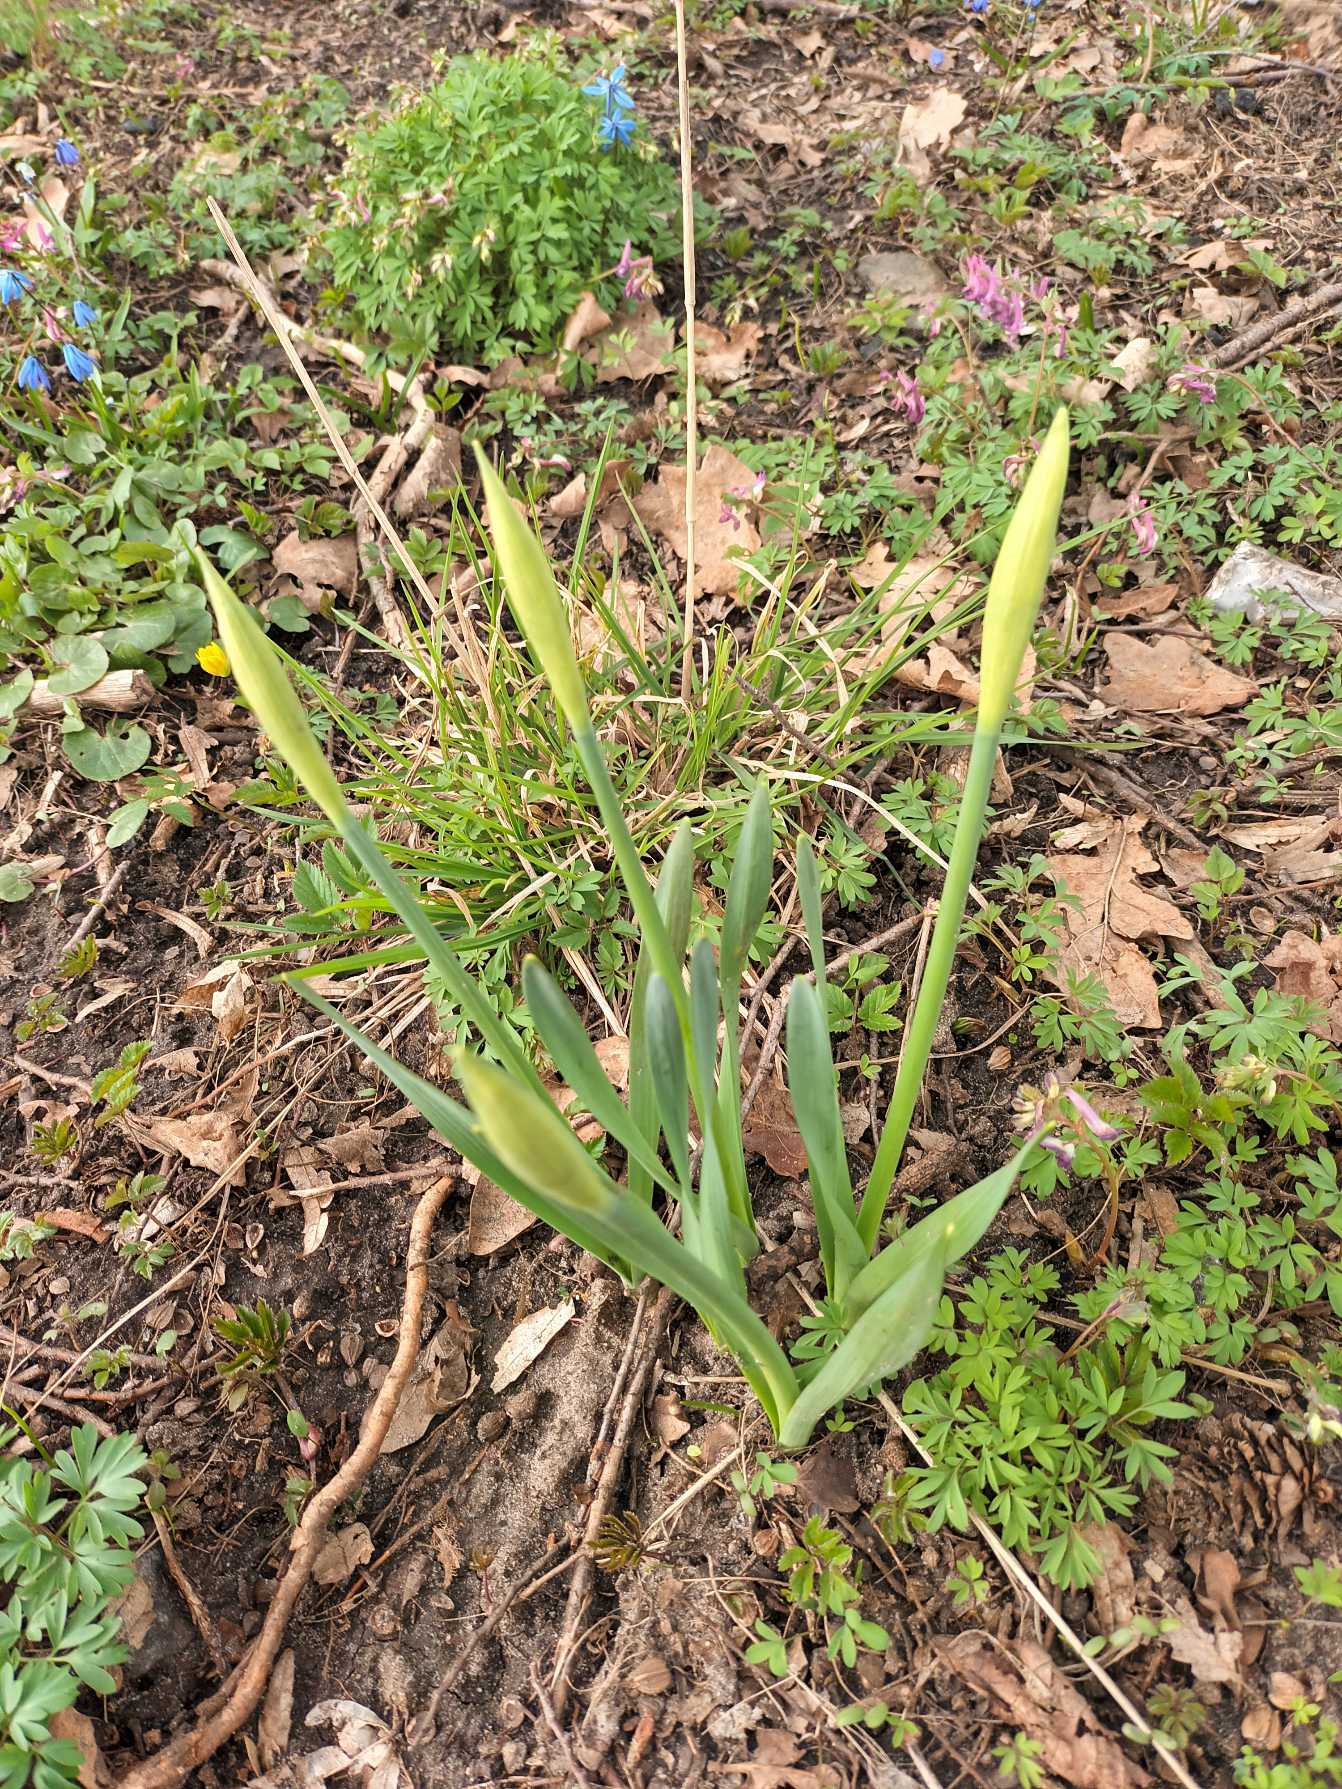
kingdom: Plantae
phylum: Tracheophyta
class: Liliopsida
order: Asparagales
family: Amaryllidaceae
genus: Narcissus
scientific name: Narcissus pseudonarcissus
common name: Påskelilje
